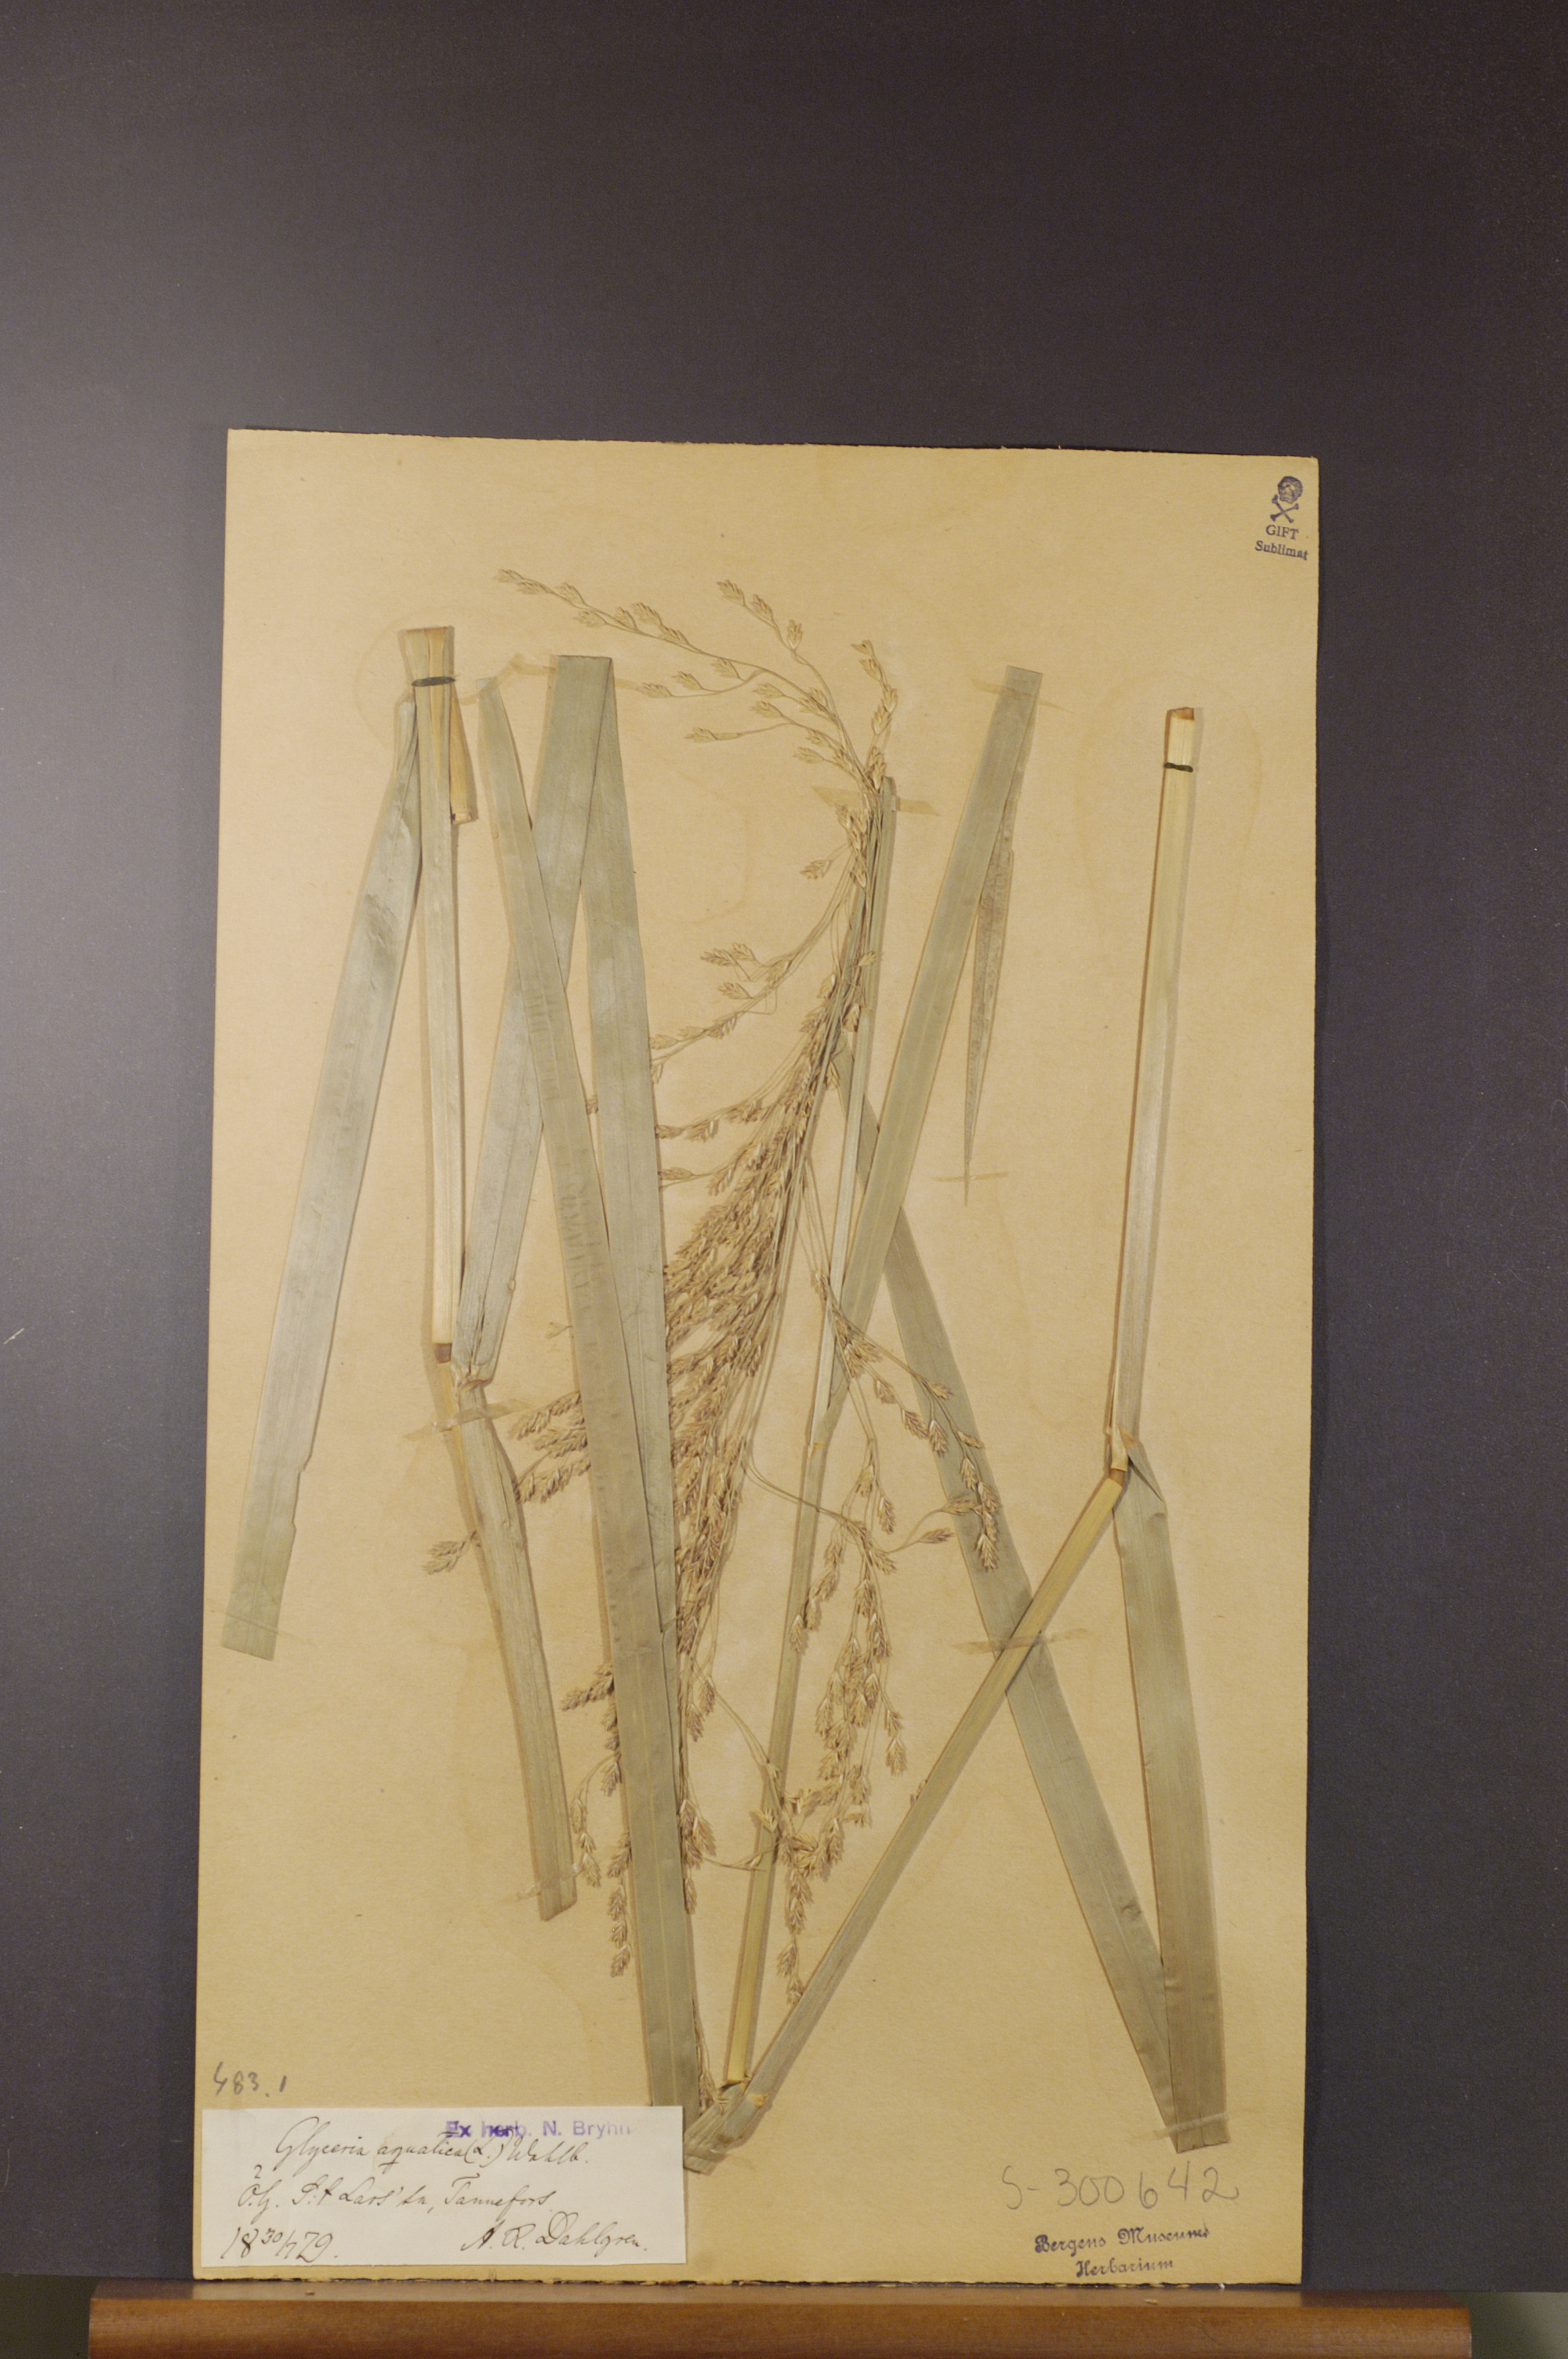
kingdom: Plantae
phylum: Tracheophyta
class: Liliopsida
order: Poales
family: Poaceae
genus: Glyceria
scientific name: Glyceria maxima
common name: Reed mannagrass
